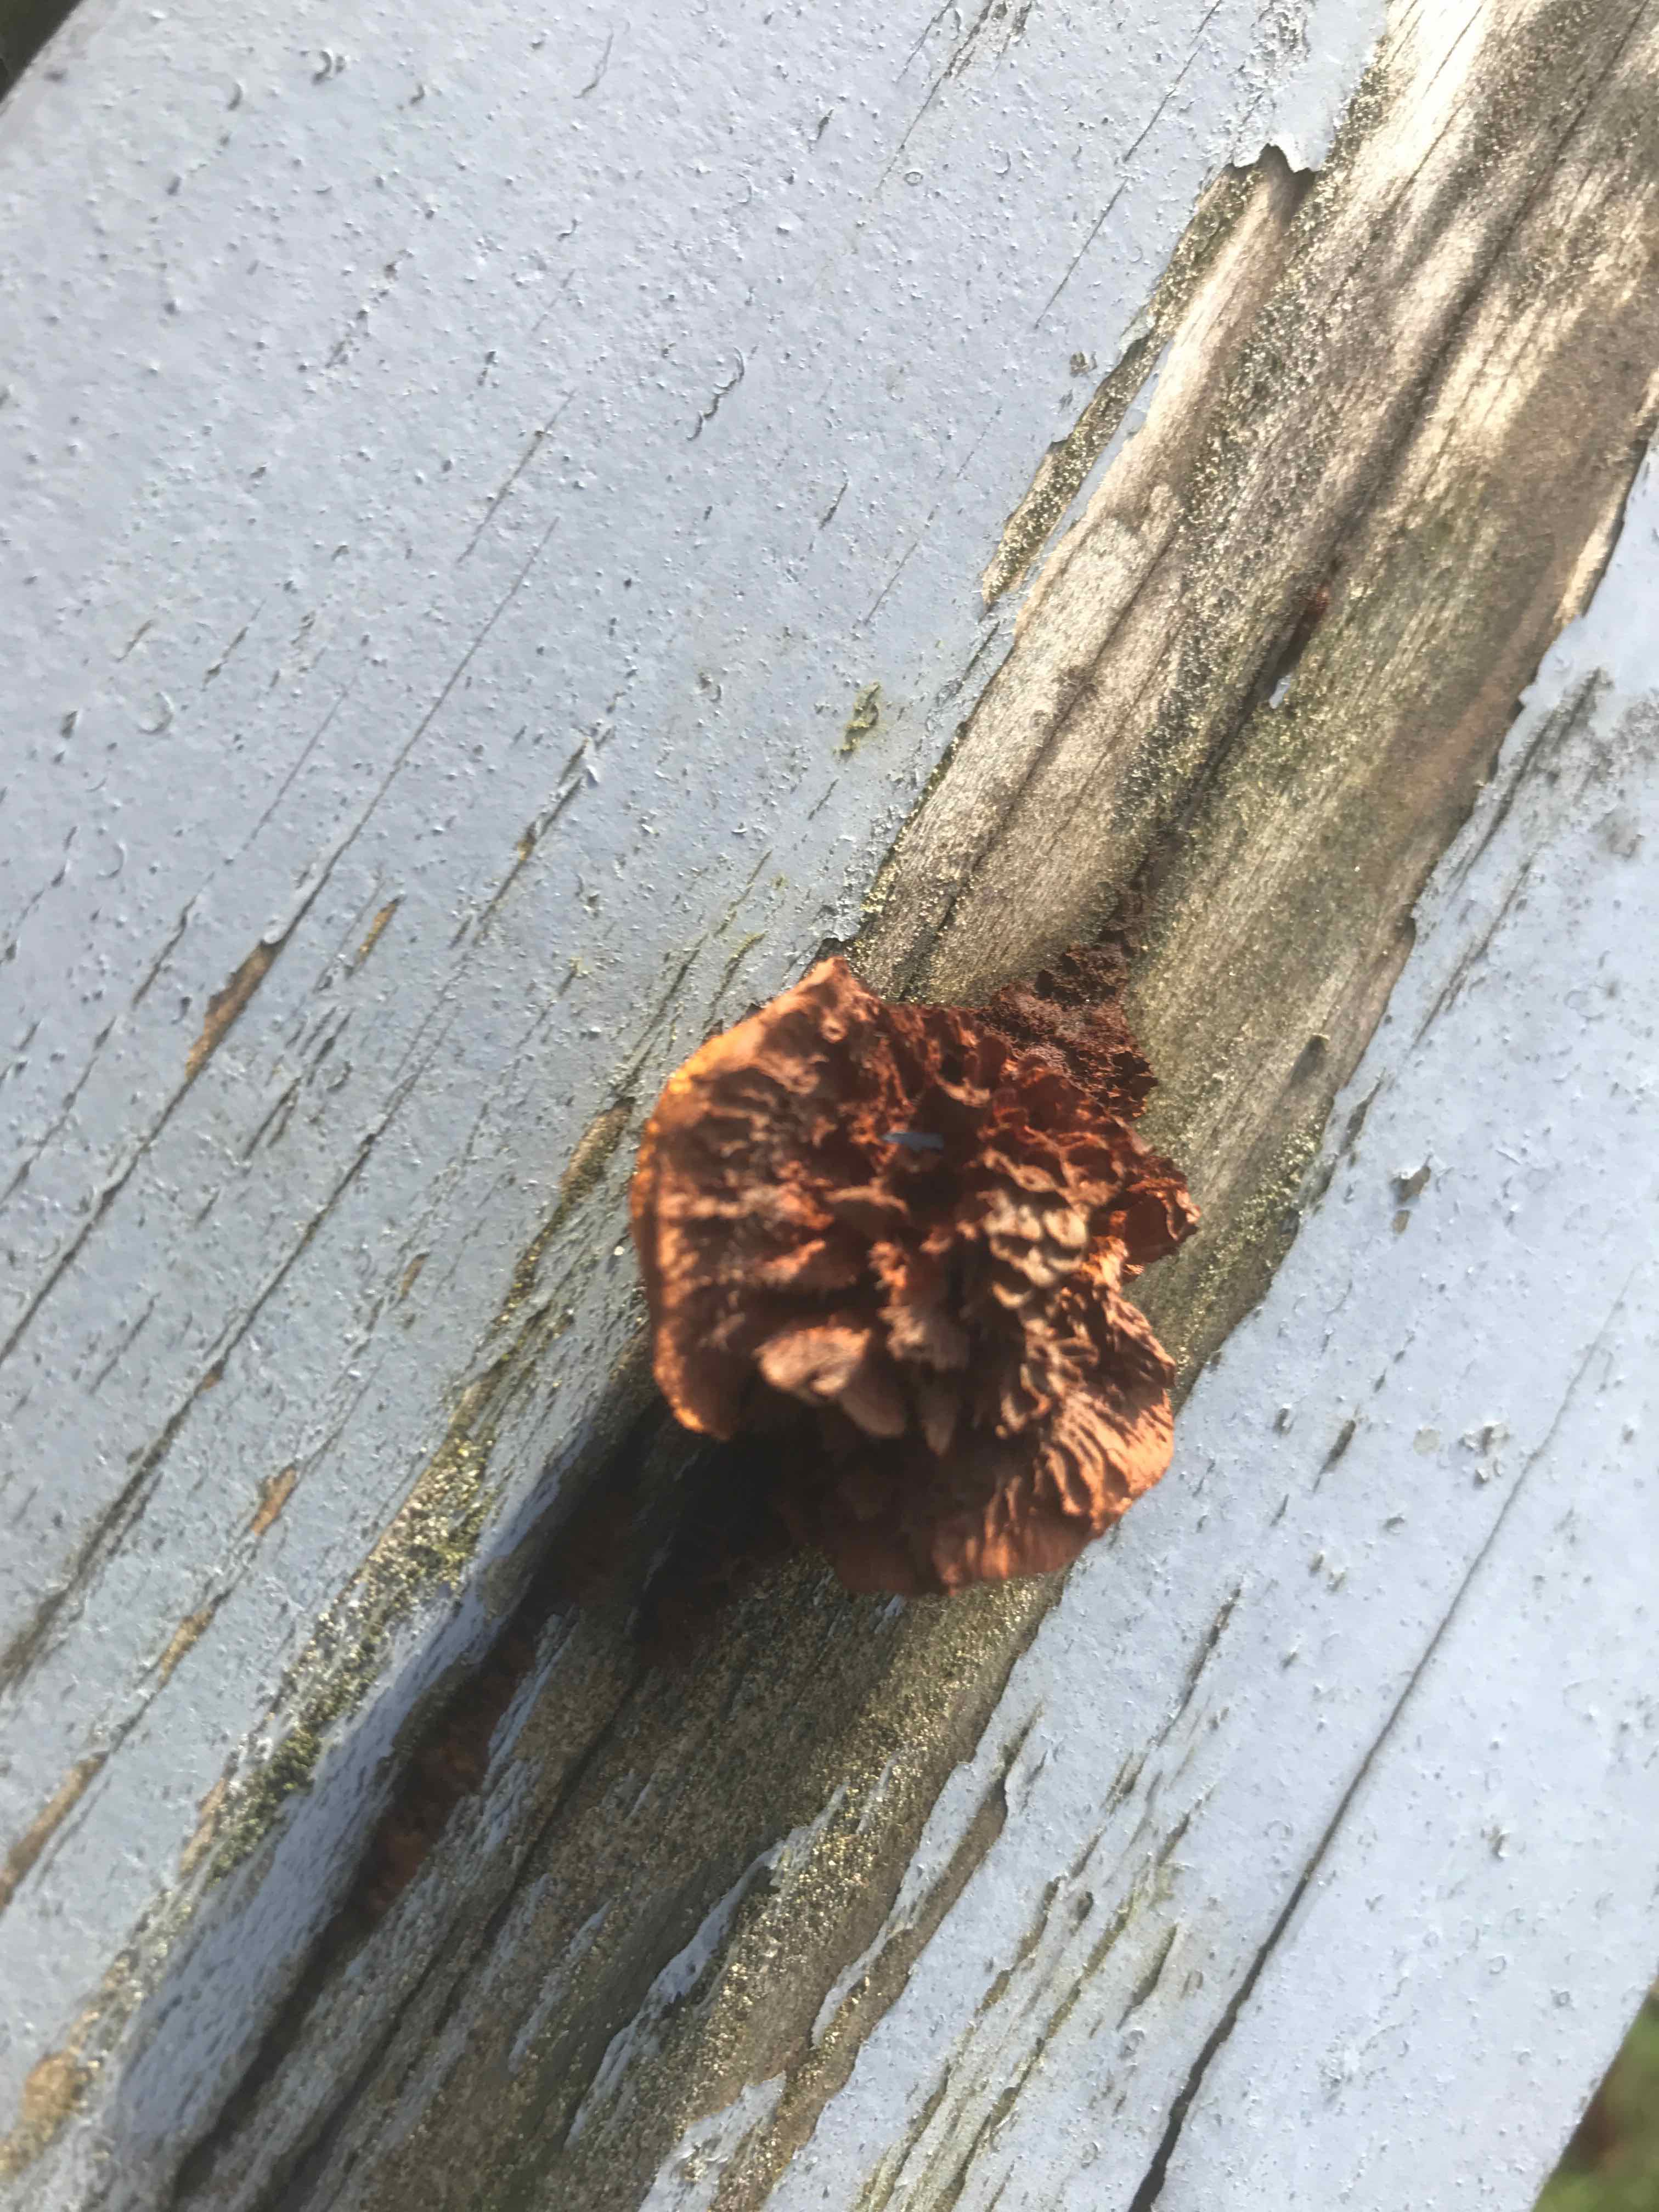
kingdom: Fungi
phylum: Basidiomycota
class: Agaricomycetes
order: Gloeophyllales
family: Gloeophyllaceae
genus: Gloeophyllum
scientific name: Gloeophyllum sepiarium
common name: fyrre-korkhat
